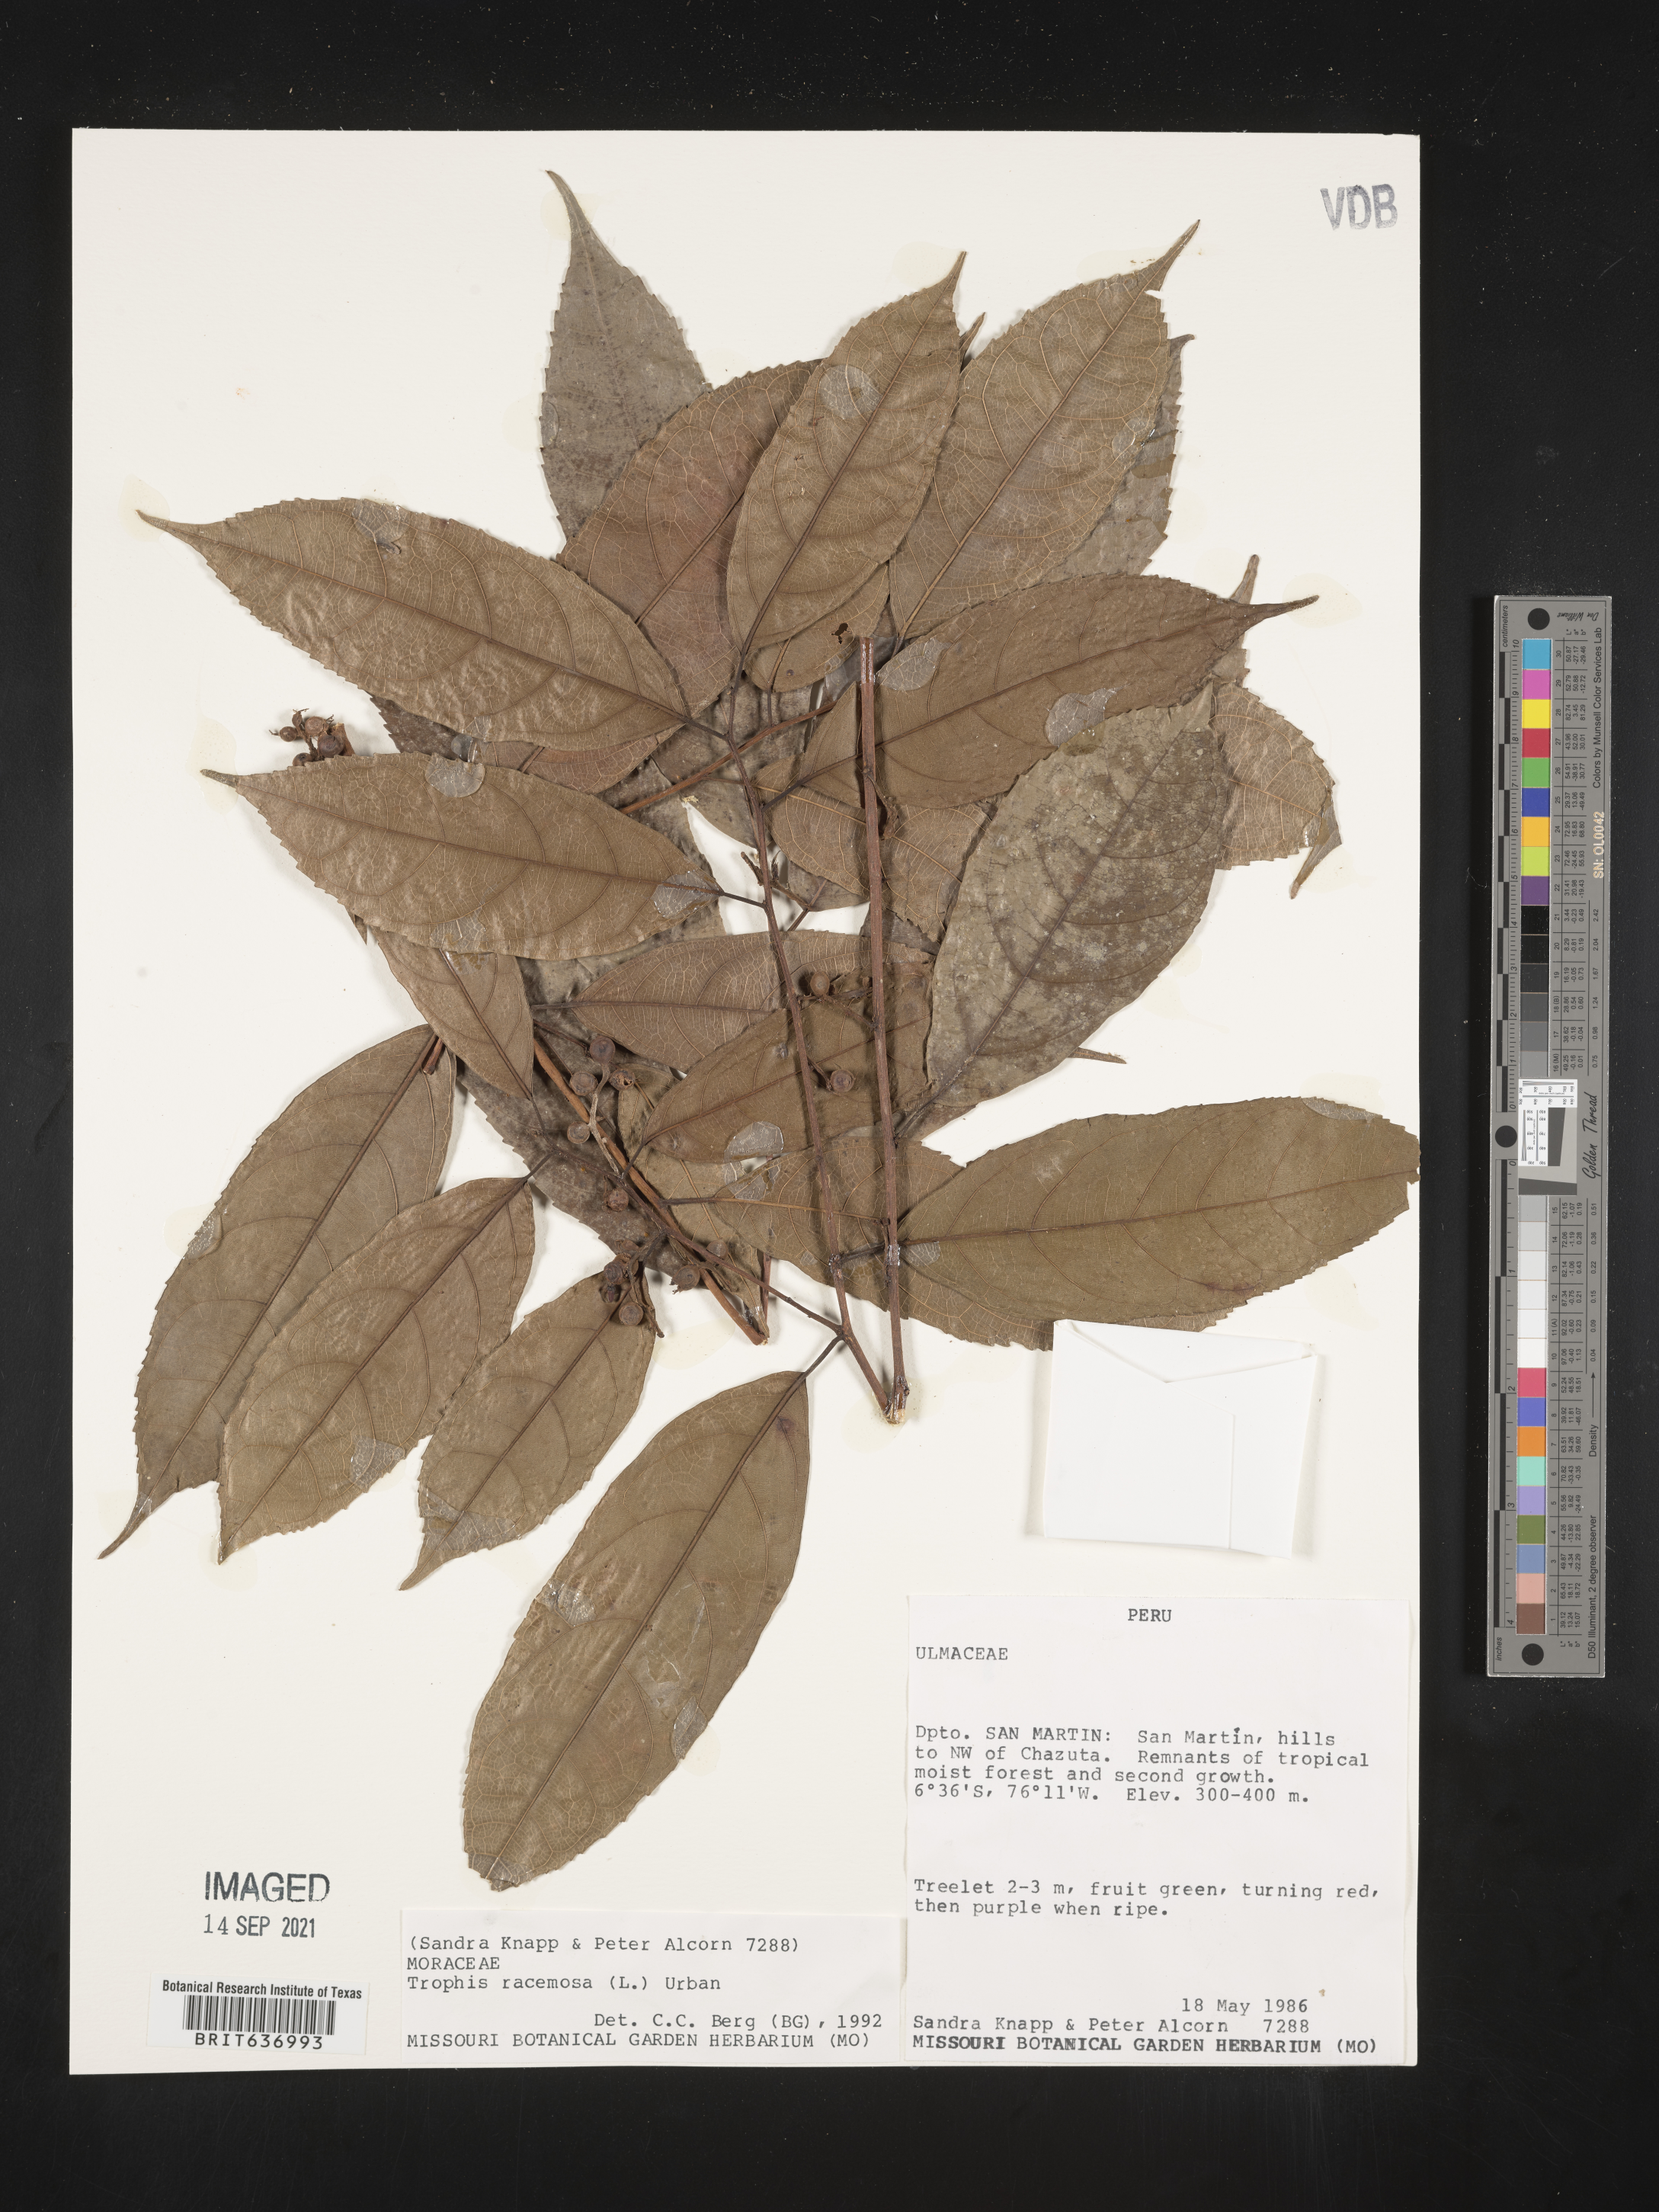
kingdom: Plantae
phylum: Tracheophyta
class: Magnoliopsida
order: Rosales
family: Moraceae
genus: Trophis
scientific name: Trophis
